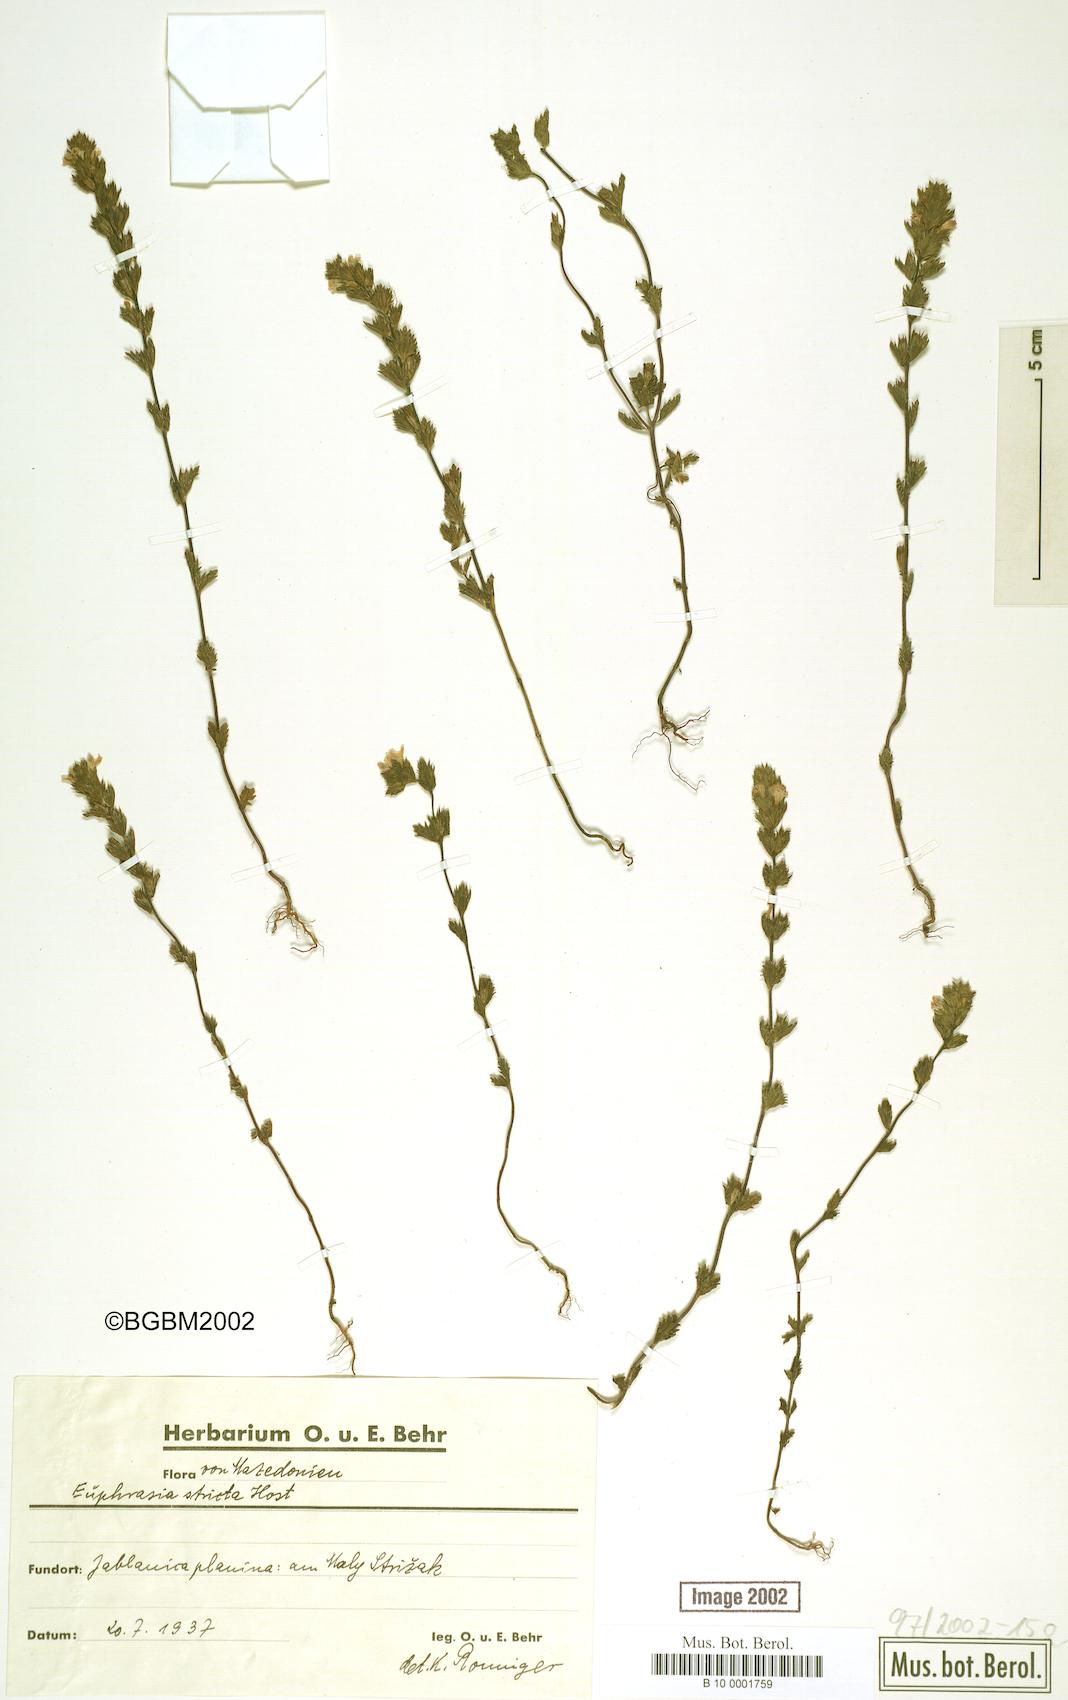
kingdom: Plantae
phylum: Tracheophyta
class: Magnoliopsida
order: Lamiales
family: Orobanchaceae
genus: Euphrasia
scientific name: Euphrasia stricta
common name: Drug eyebright
